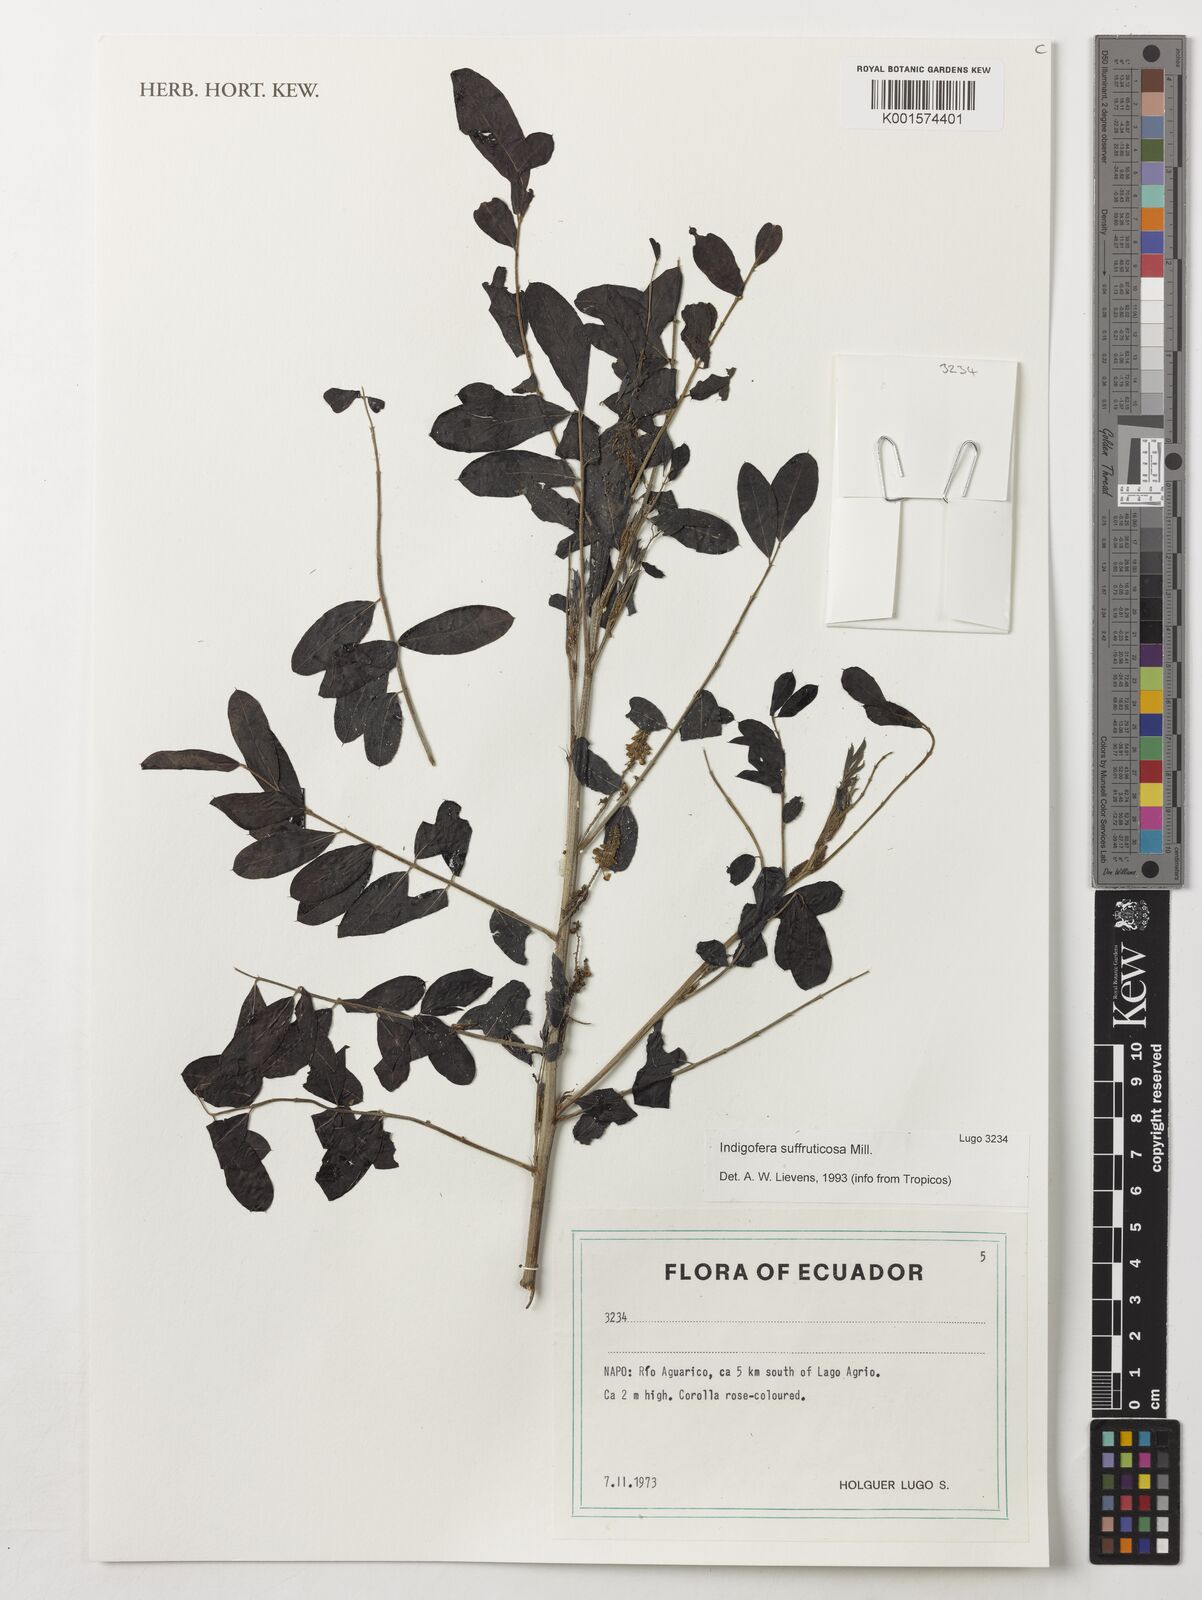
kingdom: Plantae
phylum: Tracheophyta
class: Magnoliopsida
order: Fabales
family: Fabaceae
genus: Indigofera
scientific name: Indigofera suffruticosa
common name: Anil de pasto
